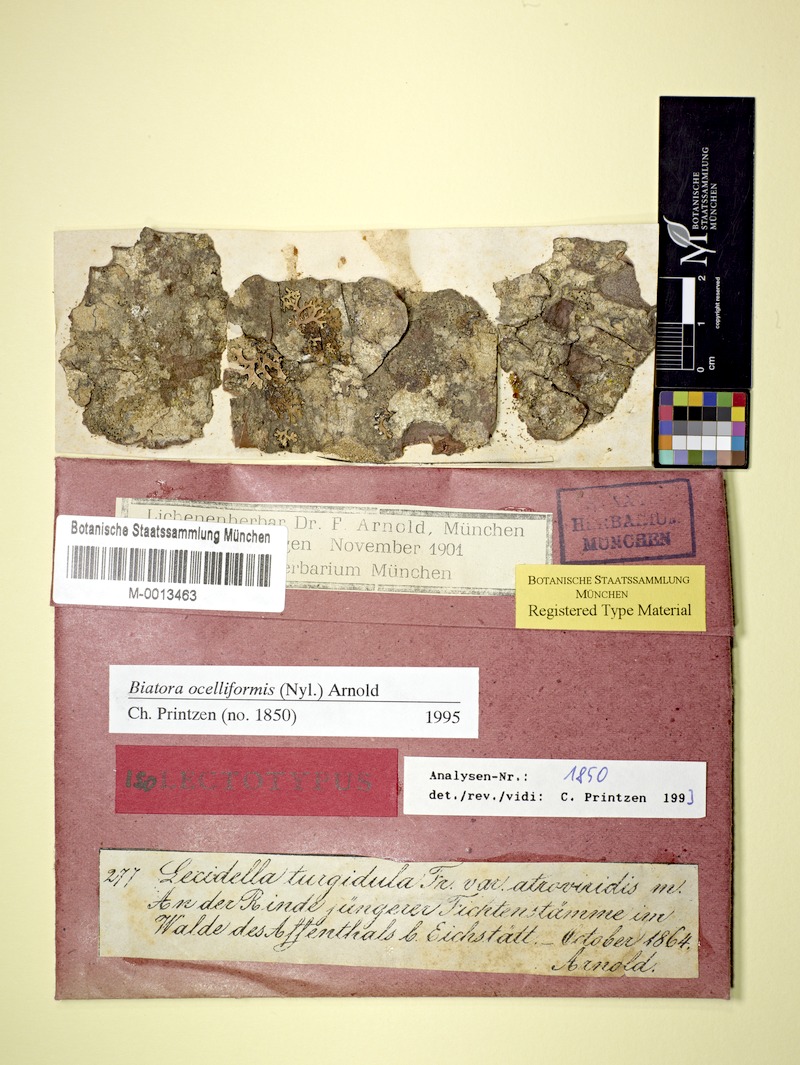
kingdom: Fungi
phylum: Ascomycota
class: Lecanoromycetes
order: Lecanorales
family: Ramalinaceae
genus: Ivanpisutia
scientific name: Ivanpisutia ocelliformis
